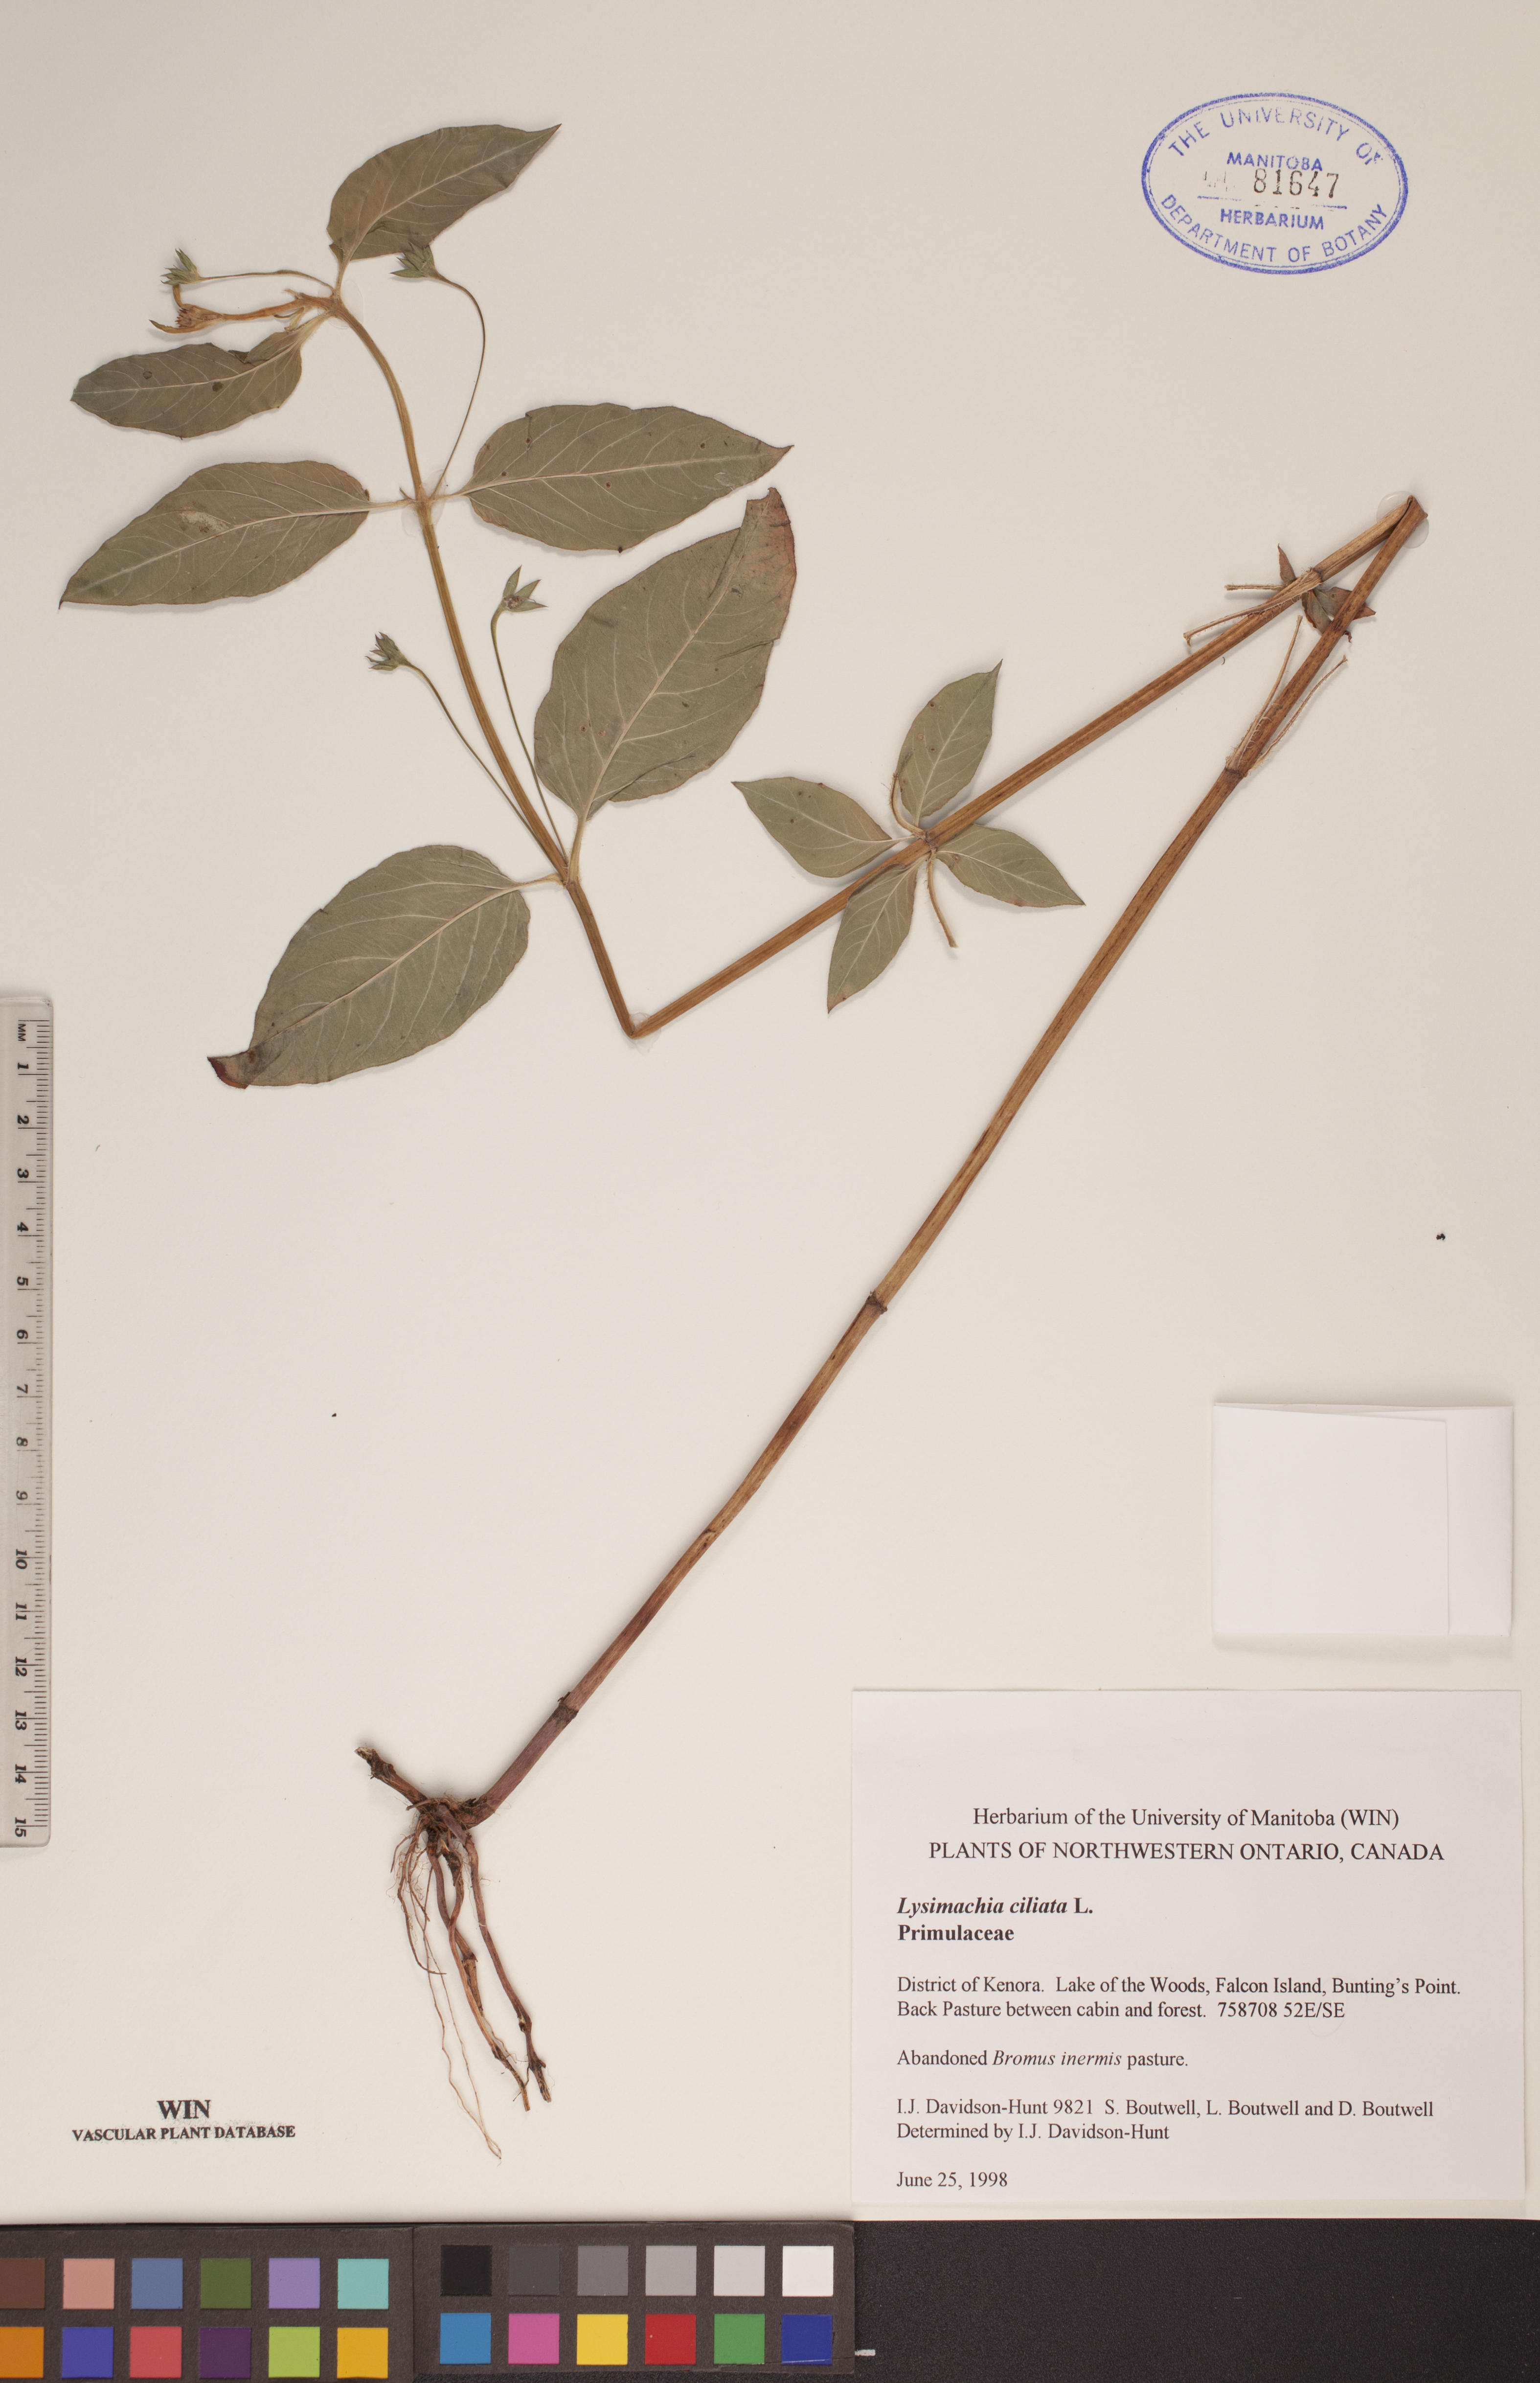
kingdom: Plantae
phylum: Tracheophyta
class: Magnoliopsida
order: Ericales
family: Primulaceae
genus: Lysimachia
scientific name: Lysimachia ciliata
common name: Fringed loosestrife
